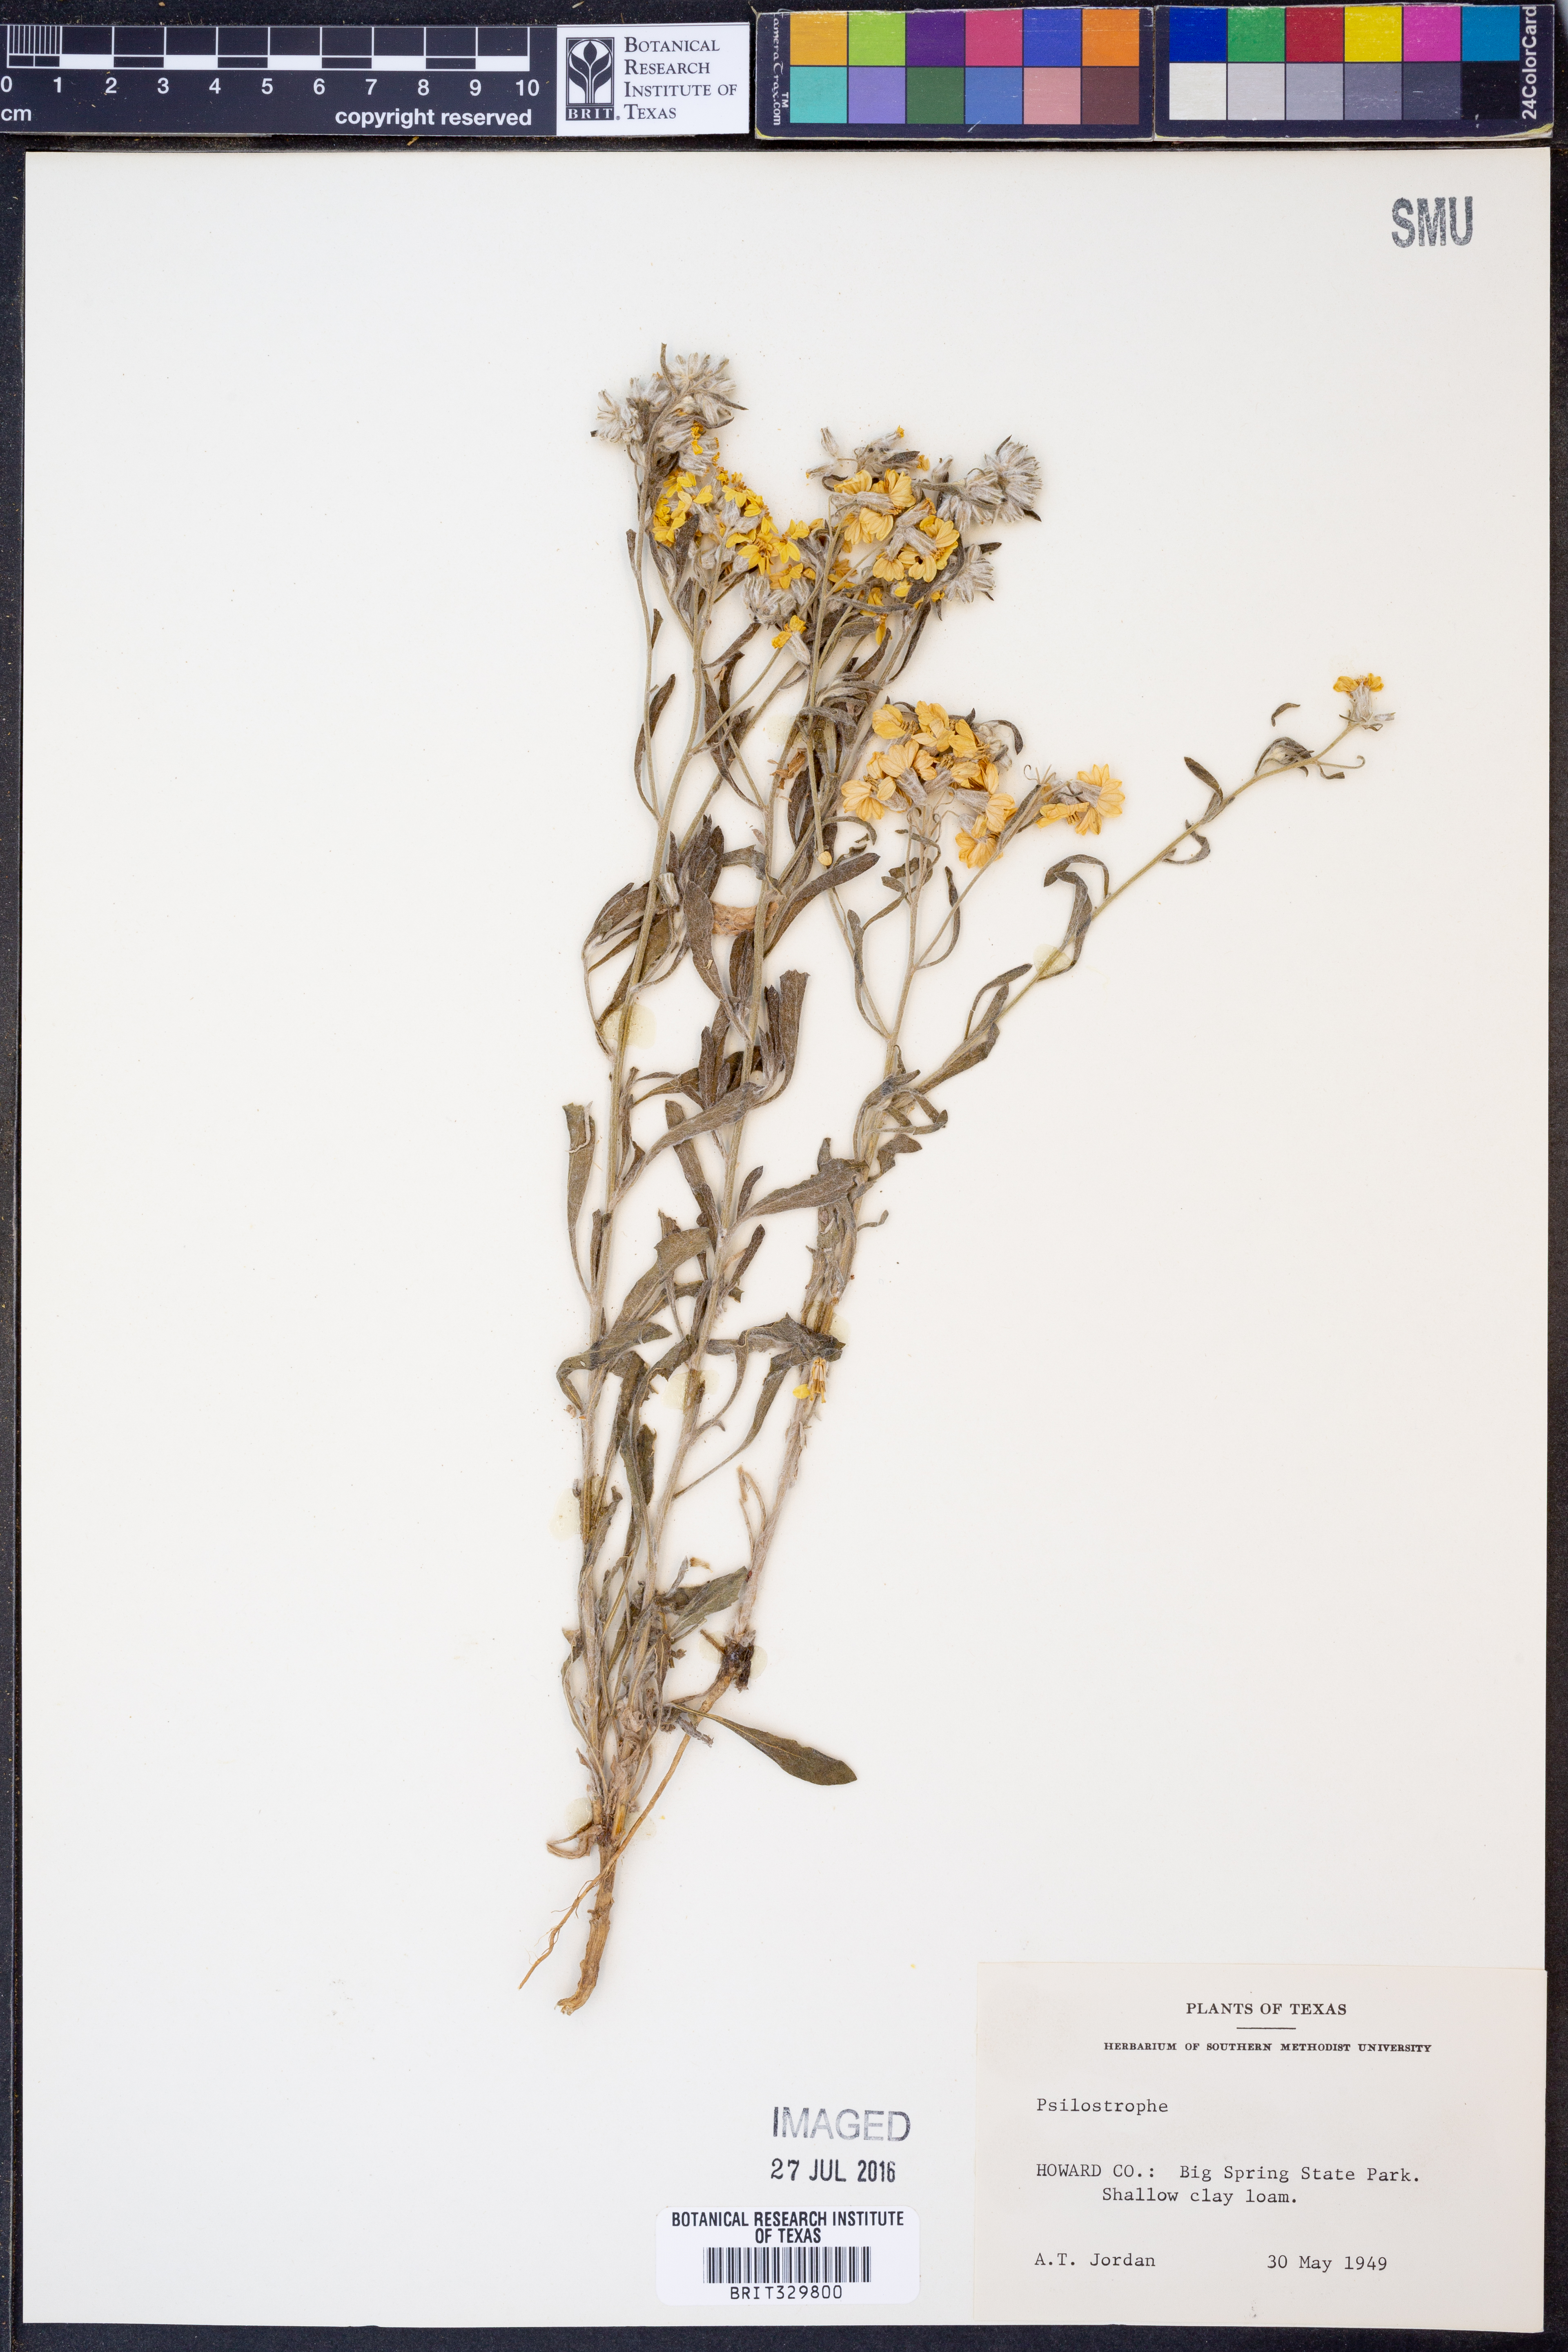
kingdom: Plantae
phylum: Tracheophyta
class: Magnoliopsida
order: Asterales
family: Asteraceae
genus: Psilostrophe
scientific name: Psilostrophe
